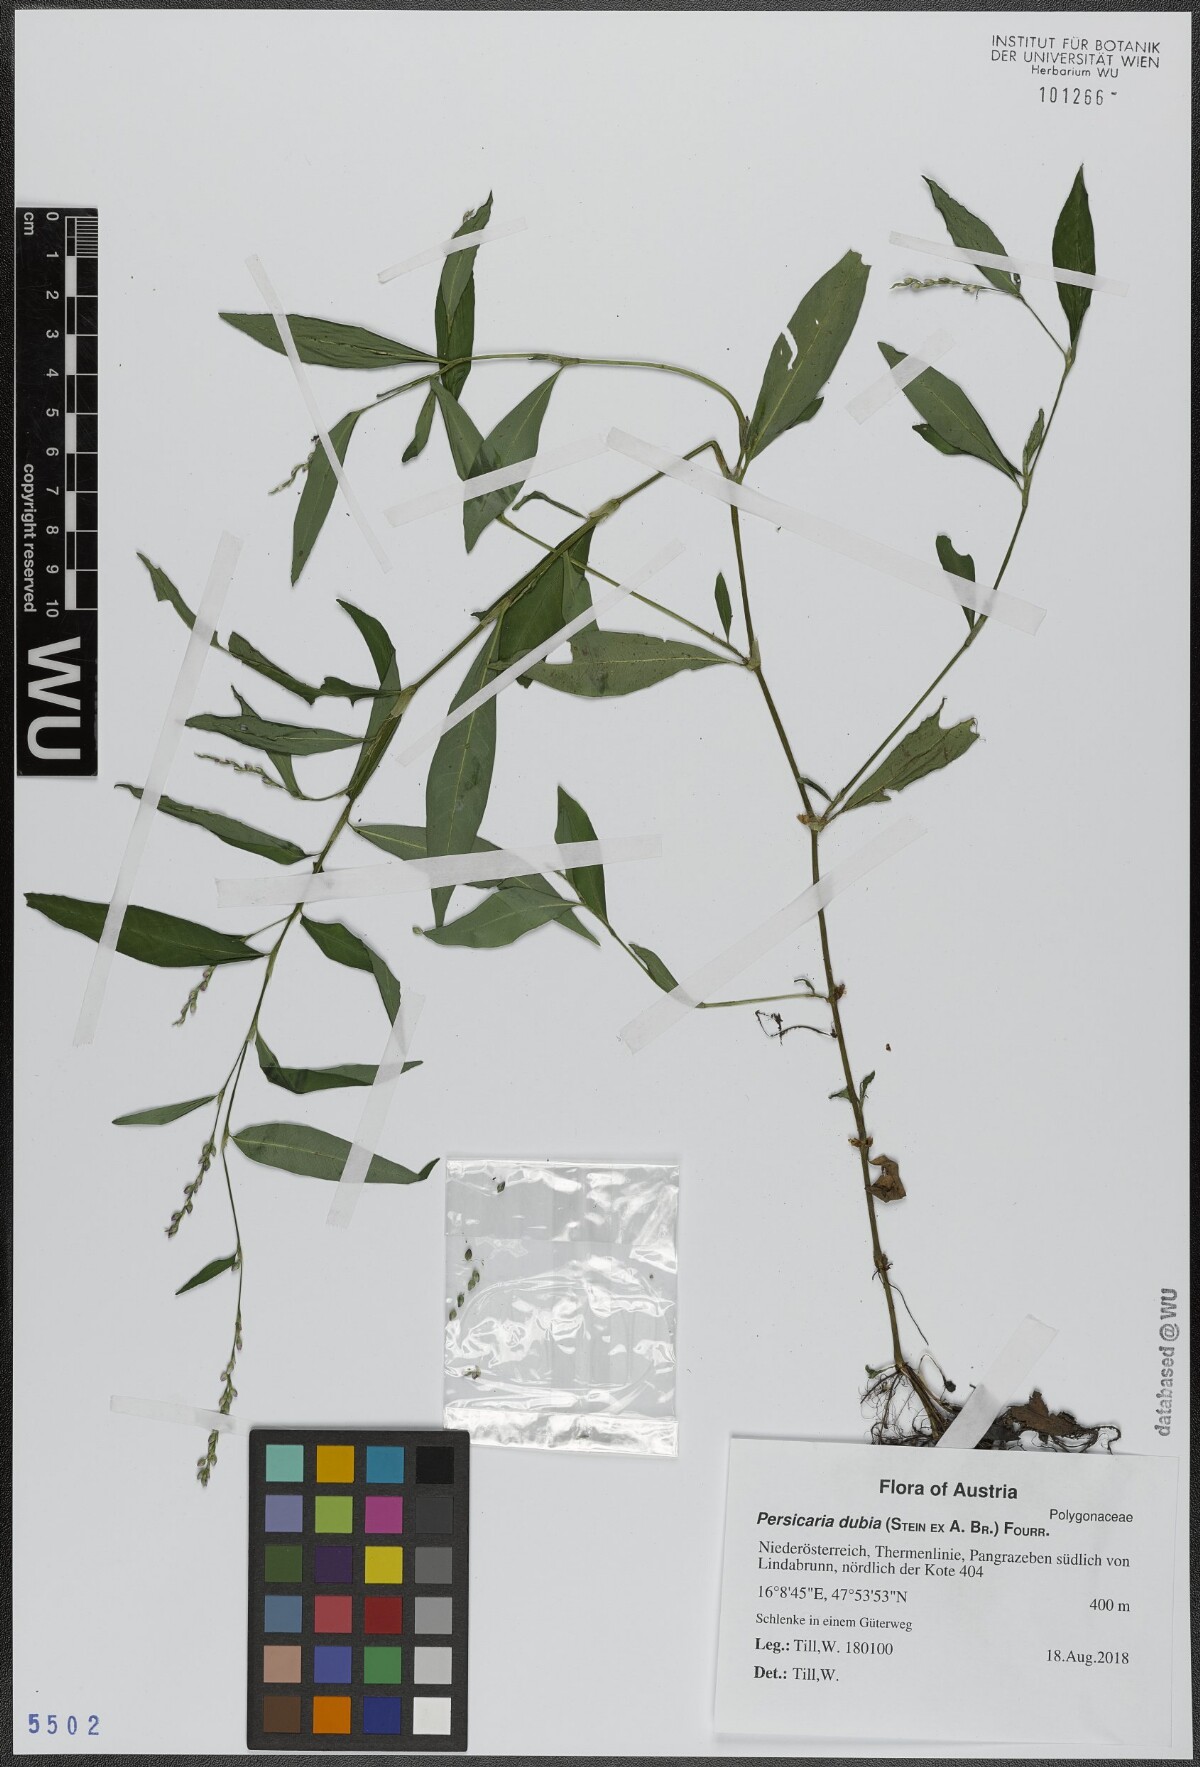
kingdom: Plantae
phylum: Tracheophyta
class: Magnoliopsida
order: Caryophyllales
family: Polygonaceae
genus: Persicaria
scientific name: Persicaria mitis
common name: Tasteless water-pepper
